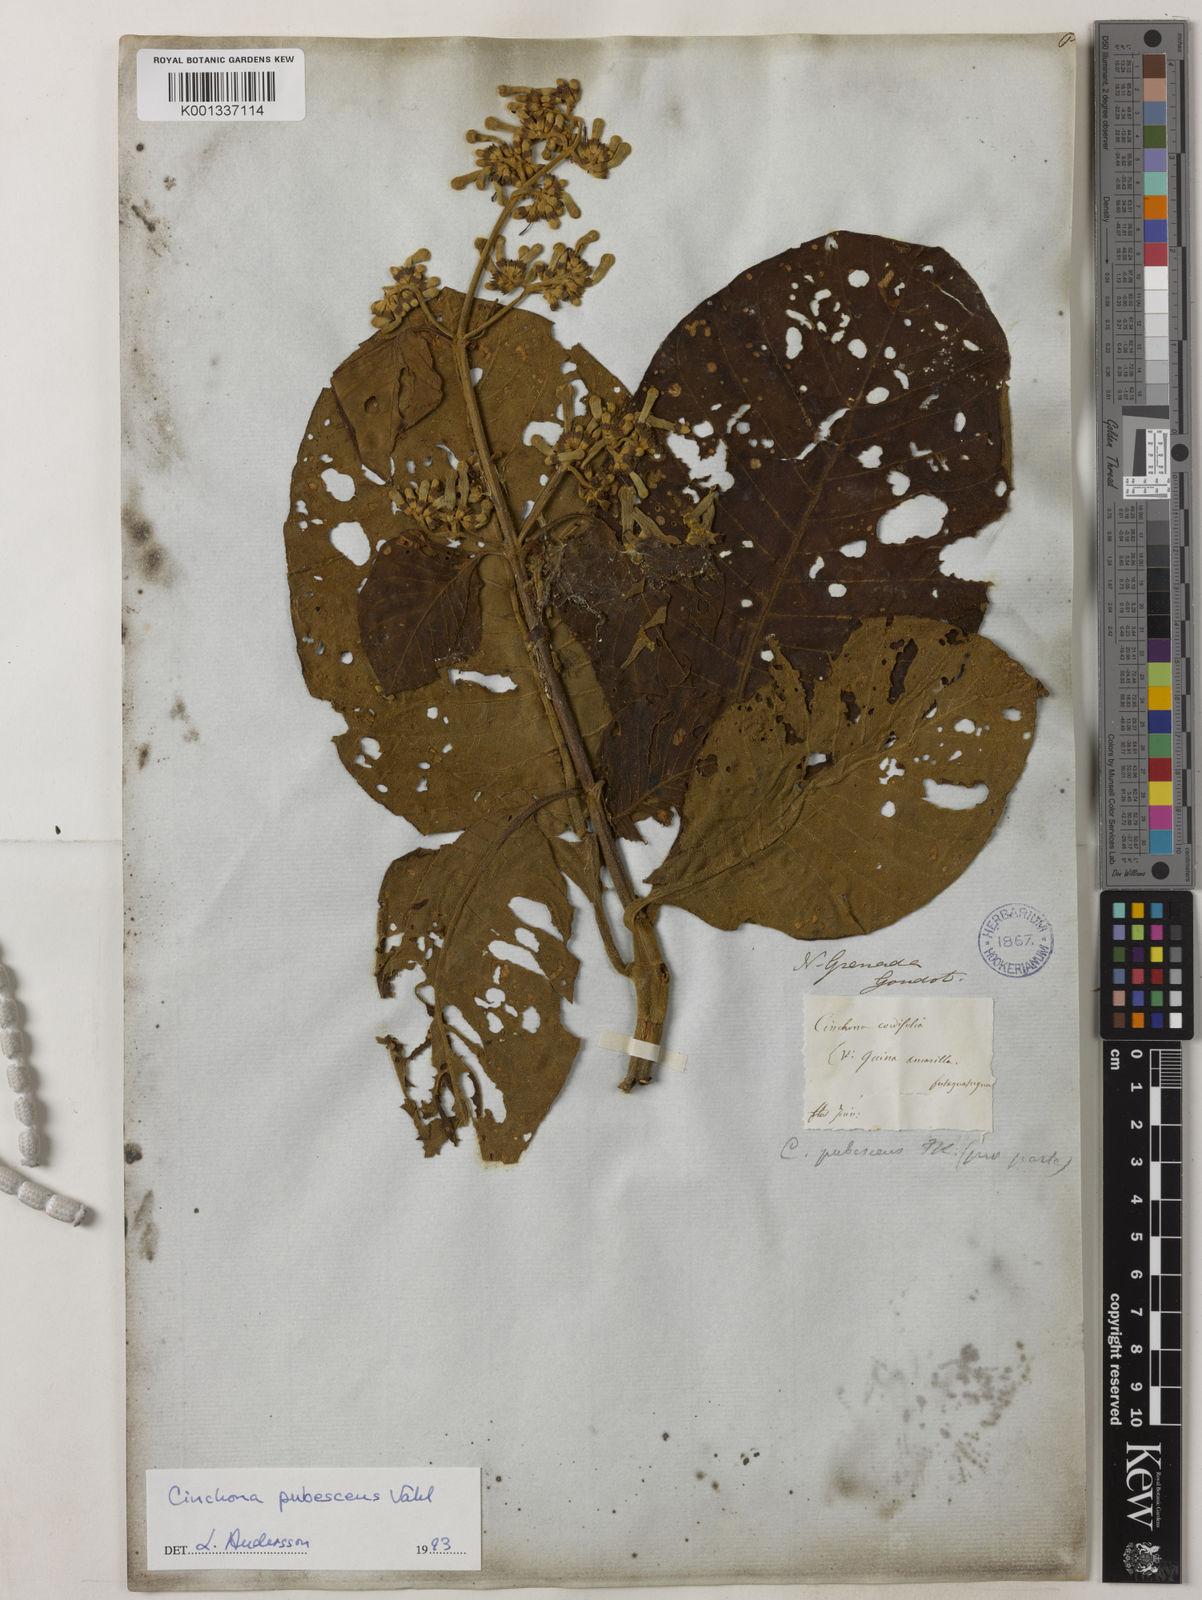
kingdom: Plantae
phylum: Tracheophyta
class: Magnoliopsida
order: Gentianales
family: Rubiaceae
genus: Cinchona
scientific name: Cinchona pubescens
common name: Quinine
